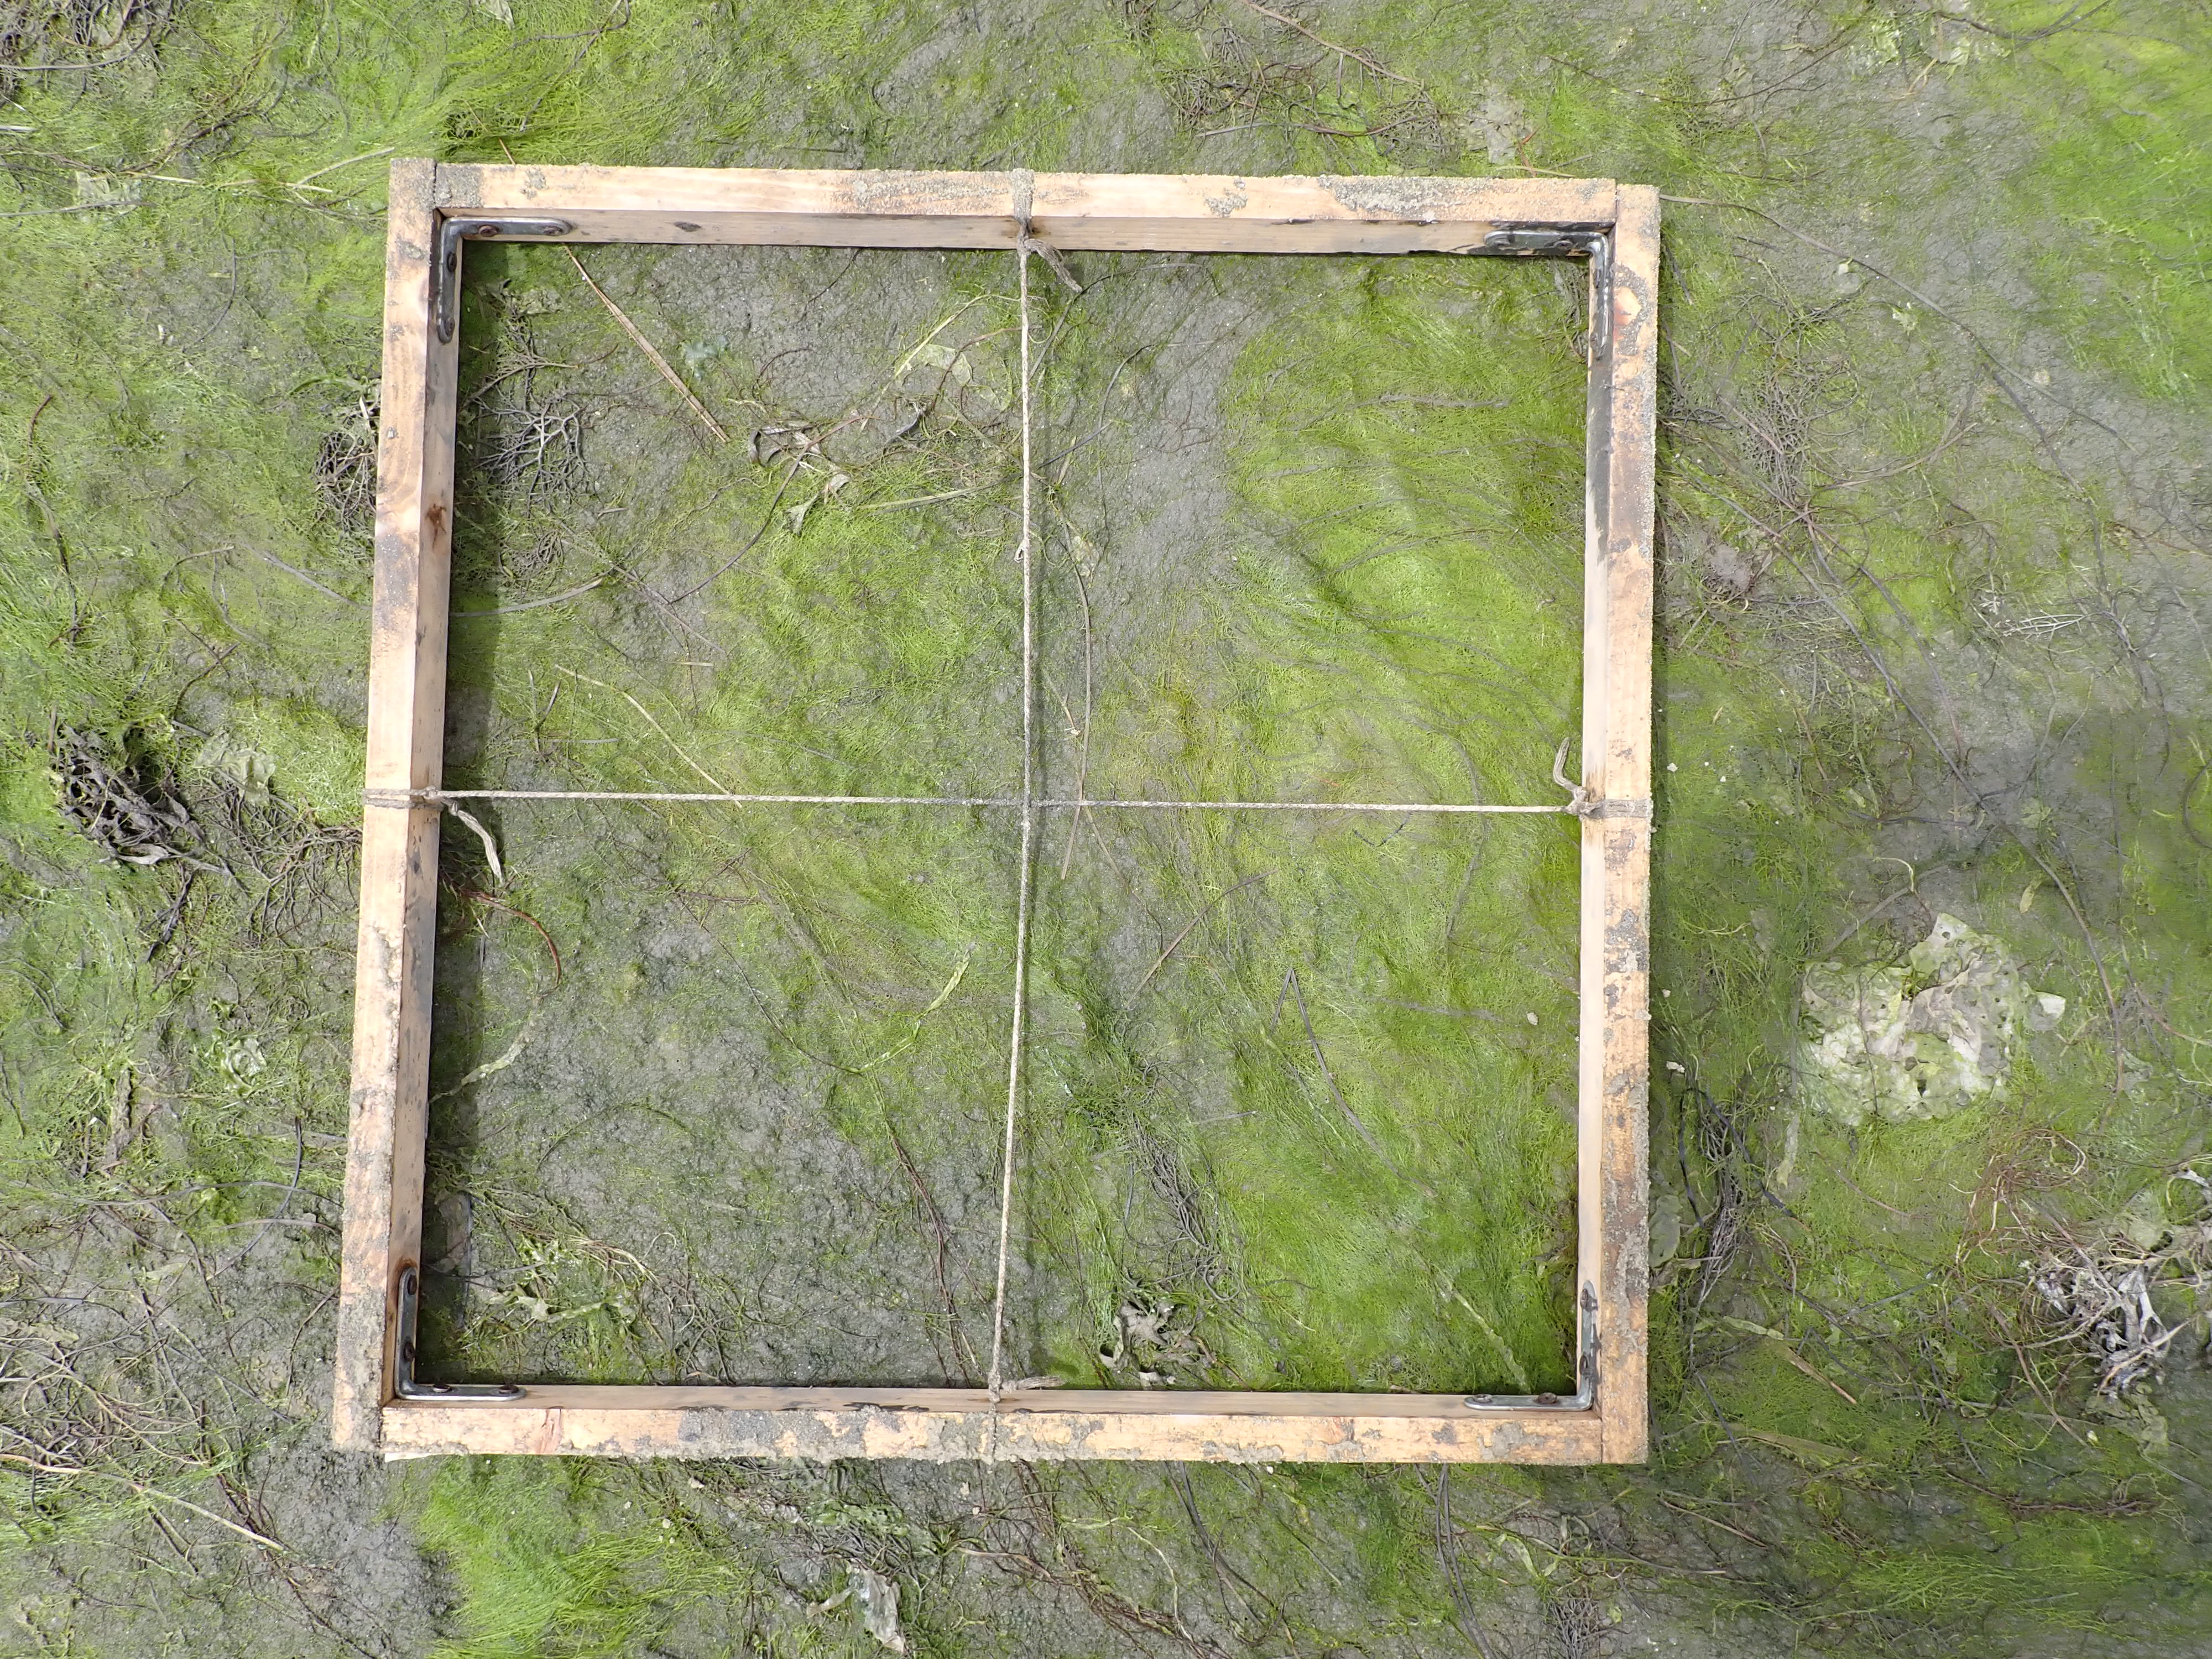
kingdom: Plantae
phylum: Tracheophyta
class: Liliopsida
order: Alismatales
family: Zosteraceae
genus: Zostera
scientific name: Zostera noltii
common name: Dwarf eelgrass
